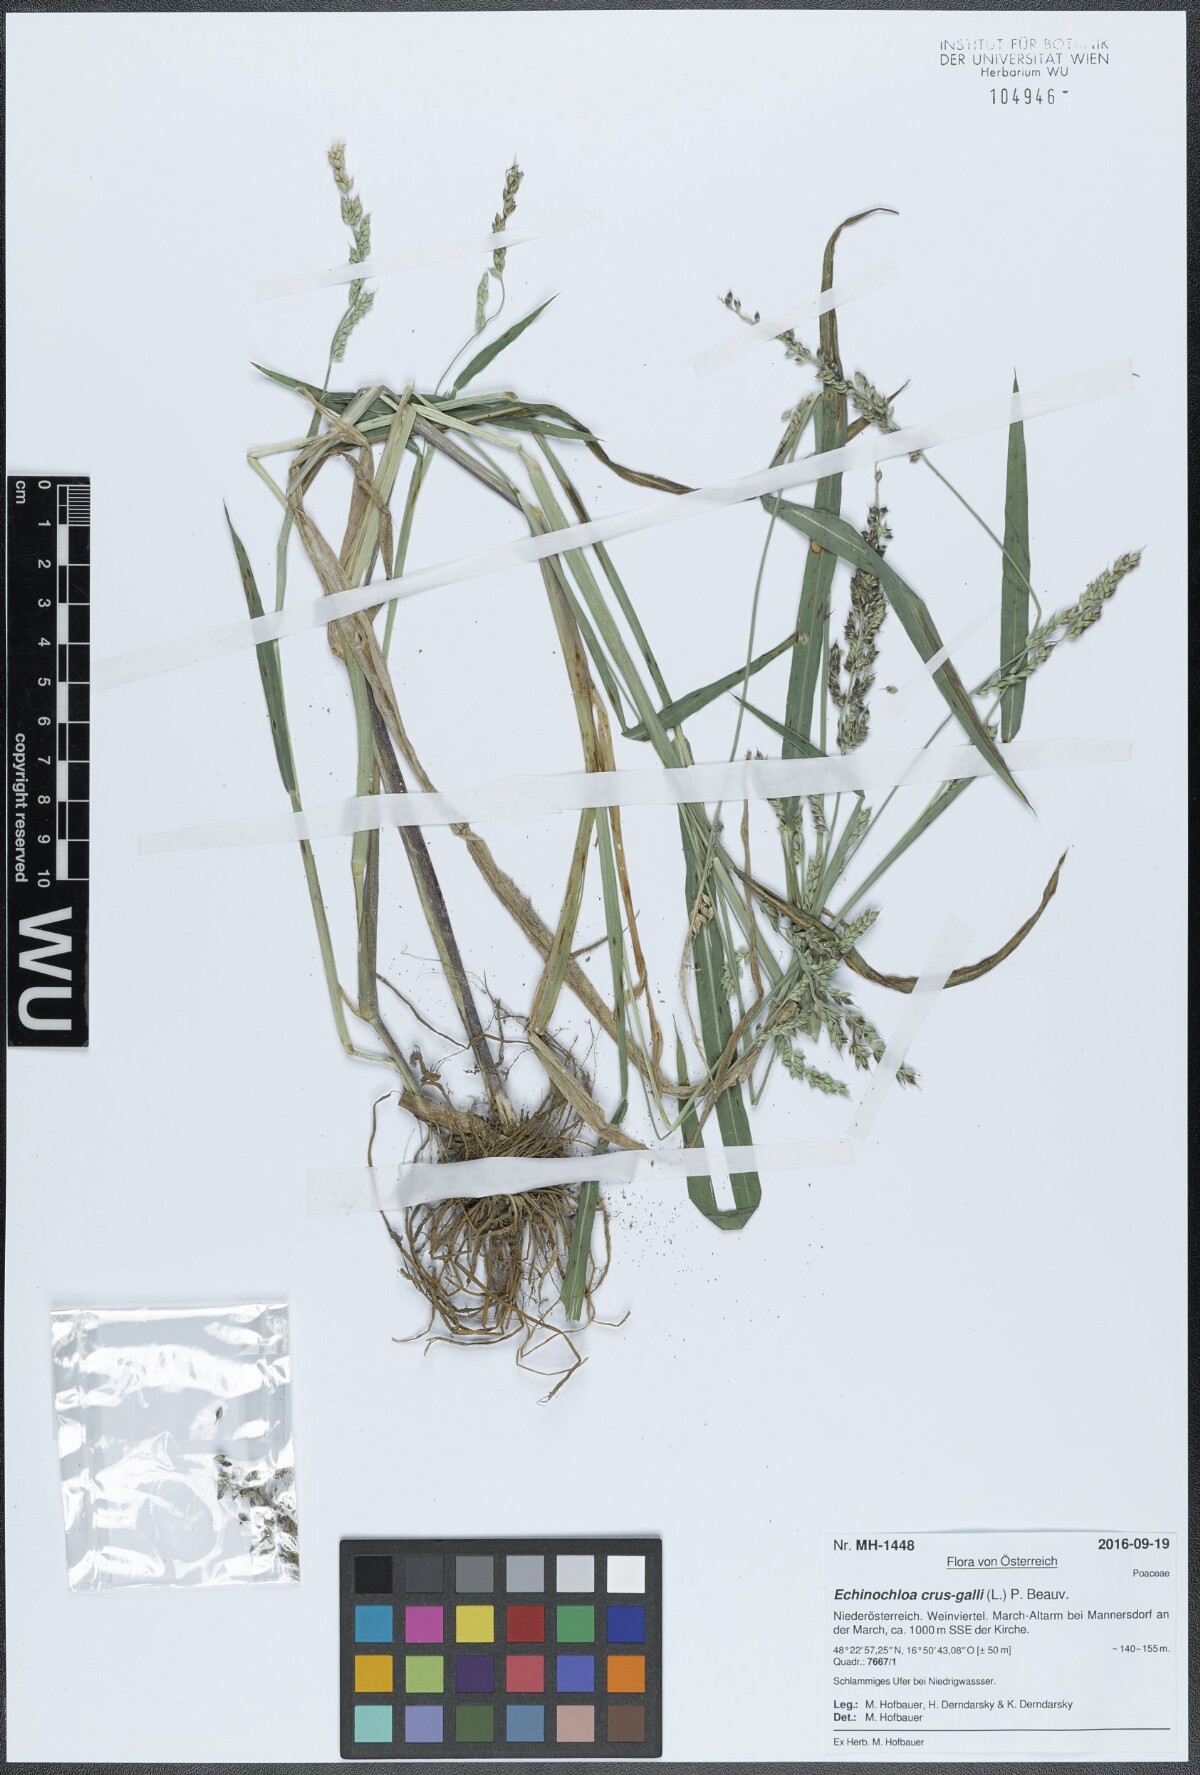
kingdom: Plantae
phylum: Tracheophyta
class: Liliopsida
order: Poales
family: Poaceae
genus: Echinochloa
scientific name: Echinochloa crus-galli
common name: Cockspur
